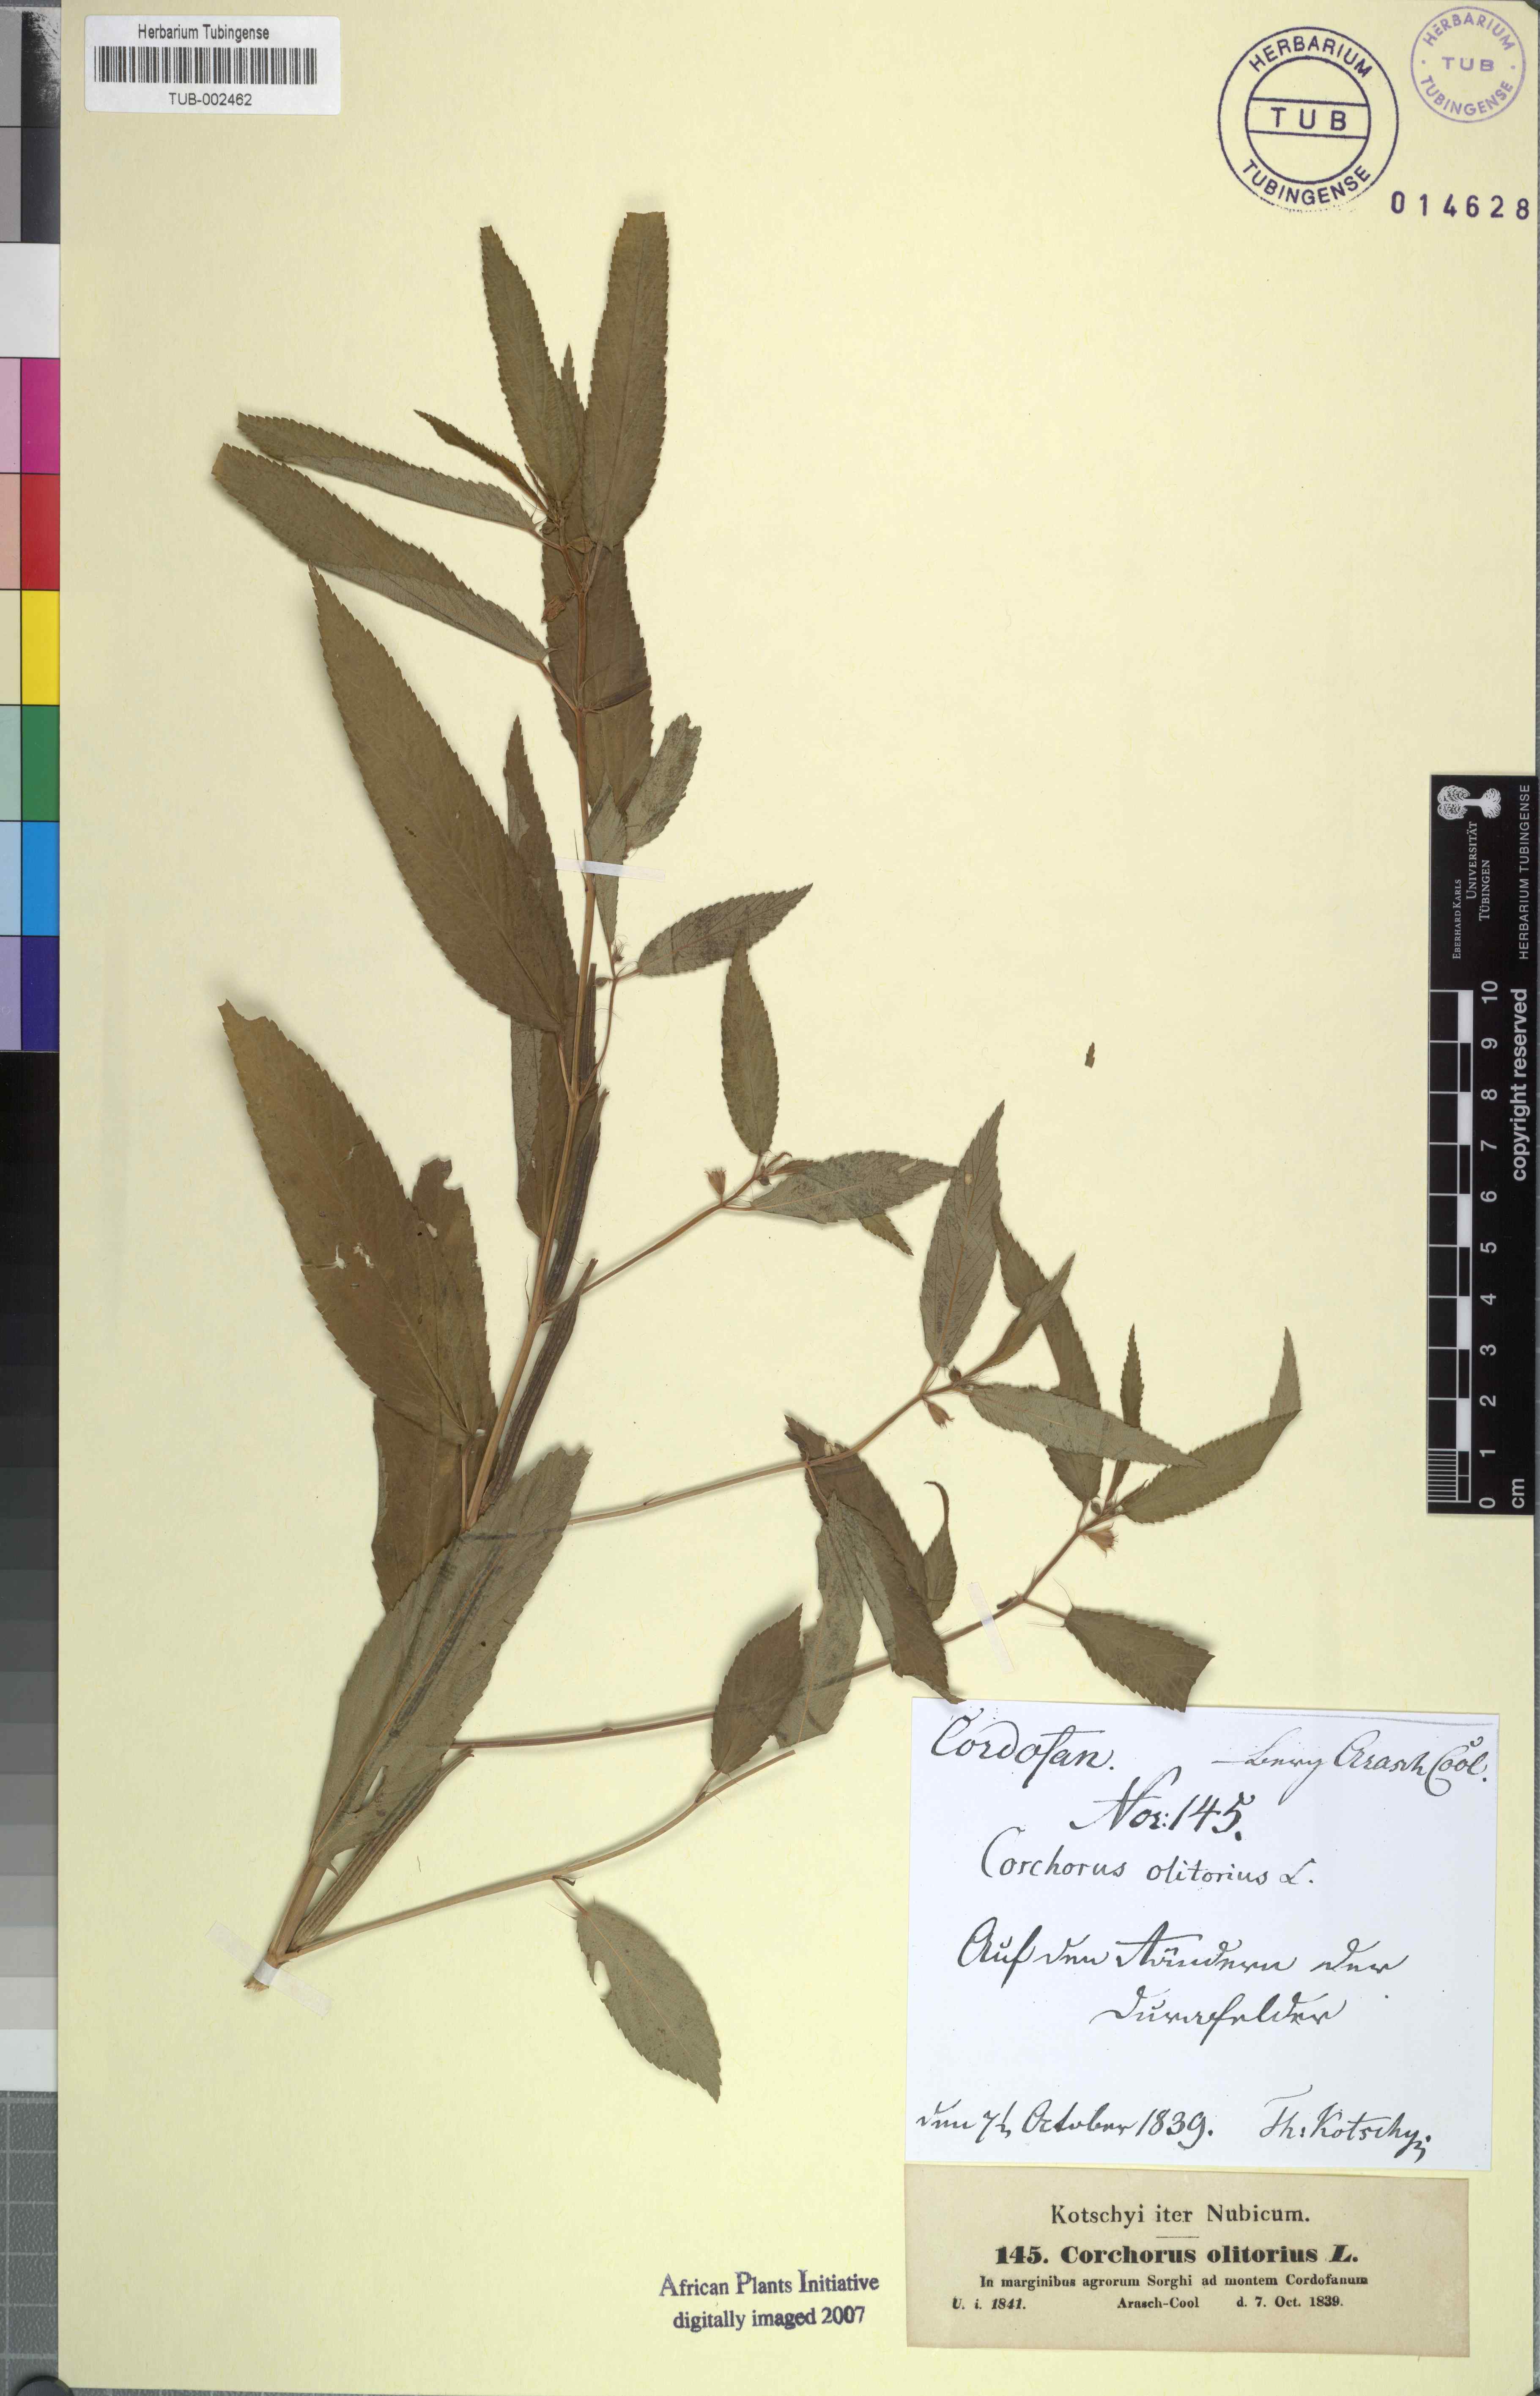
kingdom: Plantae
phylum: Tracheophyta
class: Magnoliopsida
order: Malvales
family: Malvaceae
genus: Corchorus
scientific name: Corchorus olitorius
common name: Tossa jute
